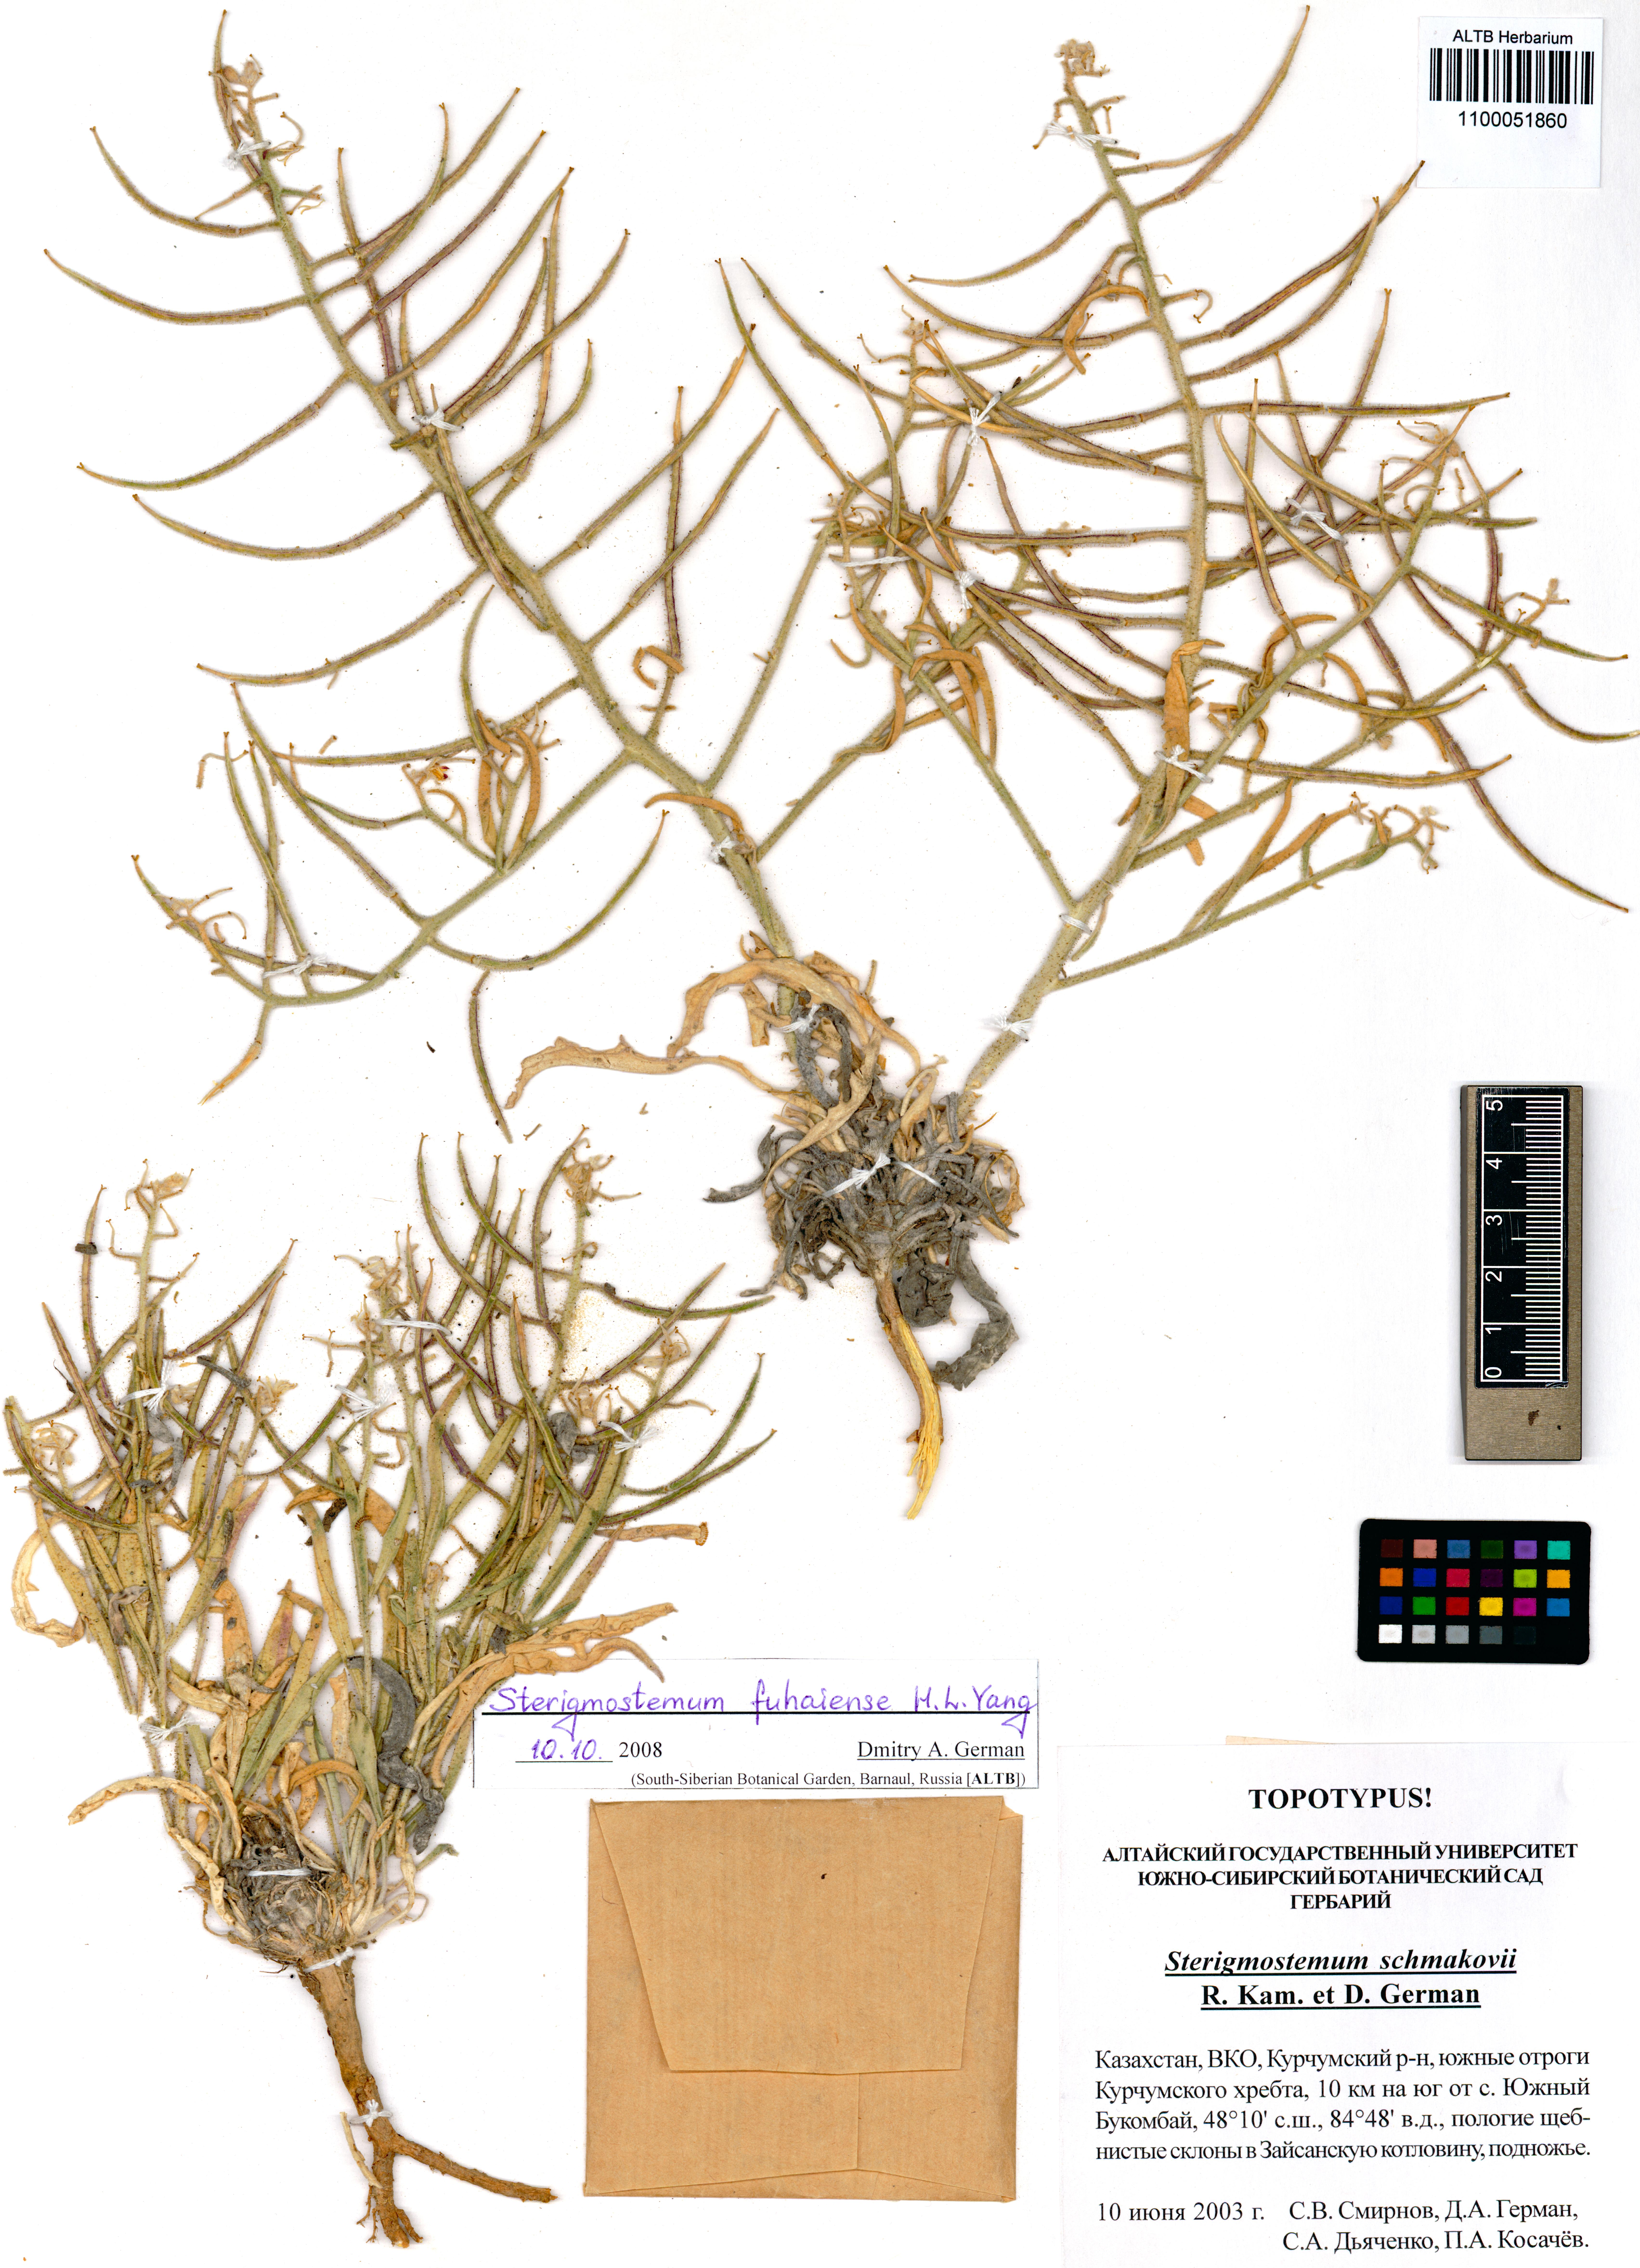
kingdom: Plantae
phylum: Tracheophyta
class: Magnoliopsida
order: Brassicales
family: Brassicaceae
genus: Sterigmostemum
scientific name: Sterigmostemum violaceum
